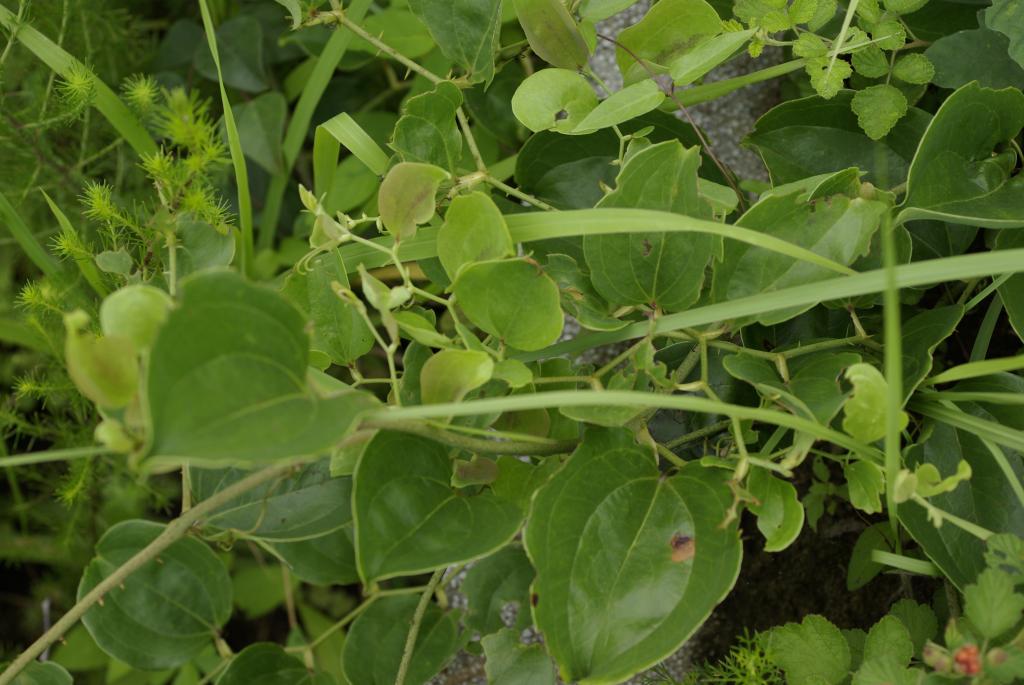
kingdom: Plantae
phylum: Tracheophyta
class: Liliopsida
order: Liliales
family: Smilacaceae
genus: Smilax
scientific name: Smilax china
